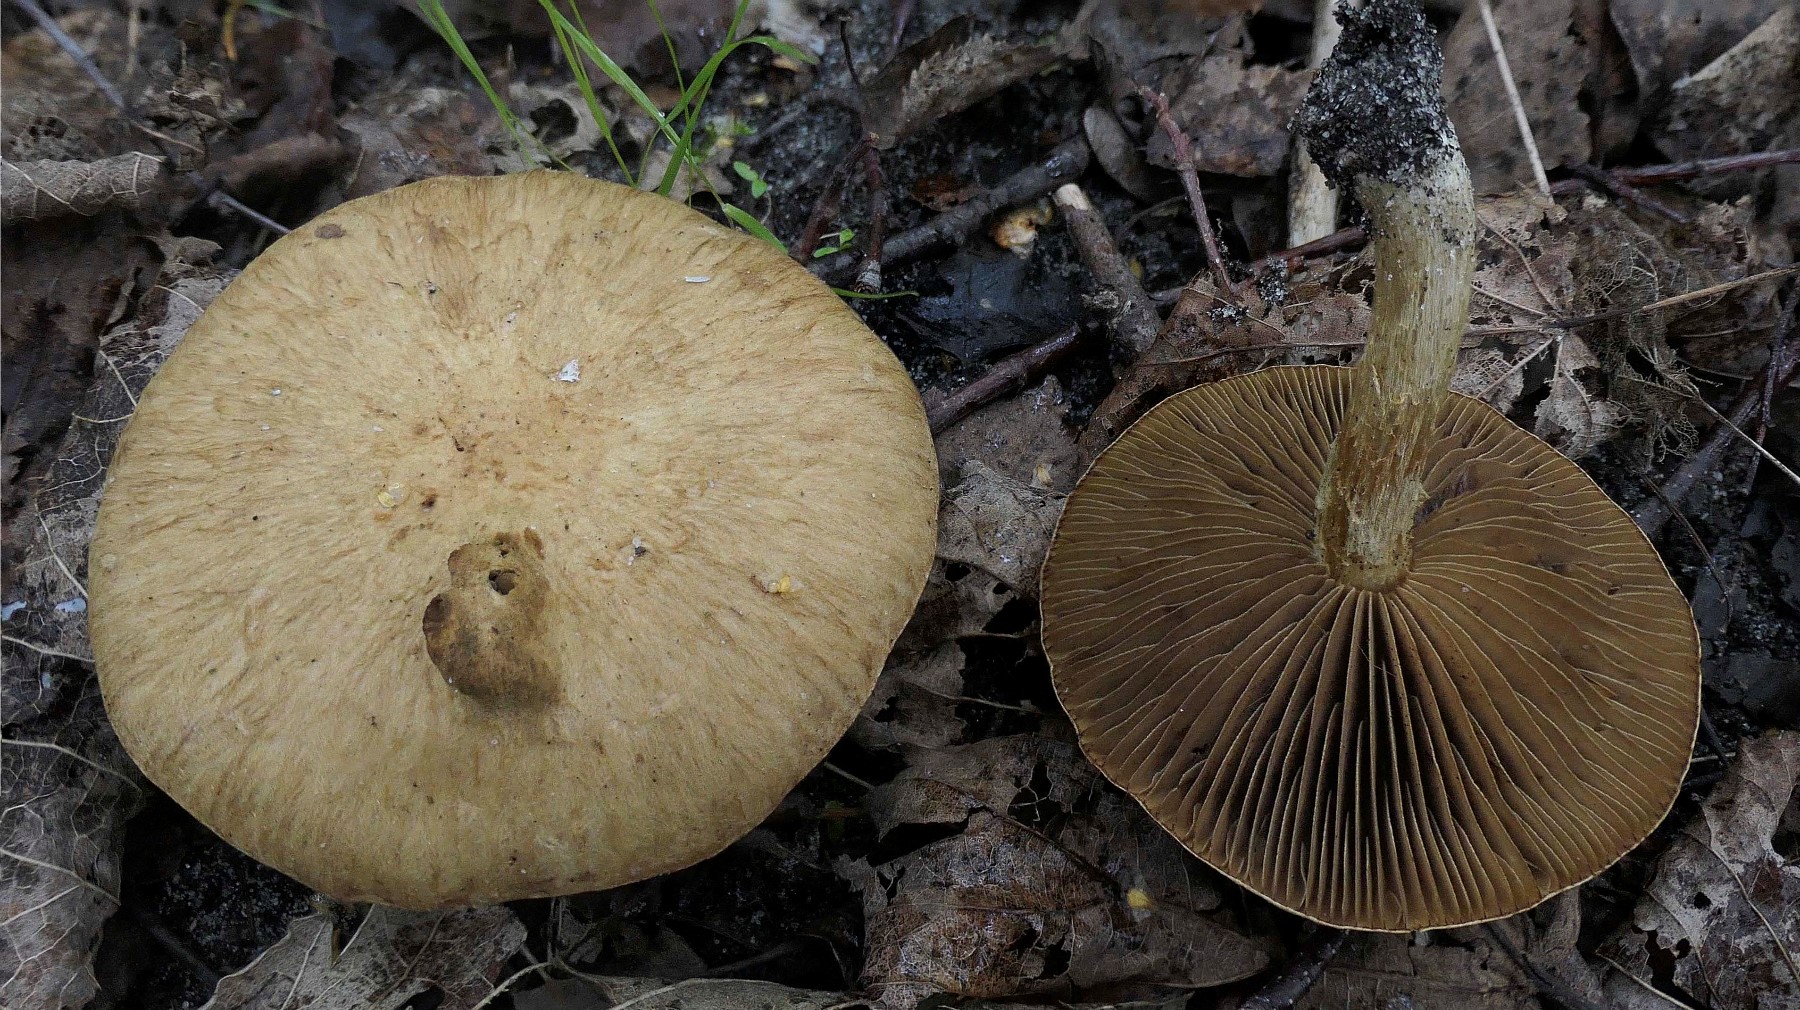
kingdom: Fungi
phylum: Basidiomycota
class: Agaricomycetes
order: Agaricales
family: Inocybaceae
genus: Inocybe
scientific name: Inocybe dulcamara
